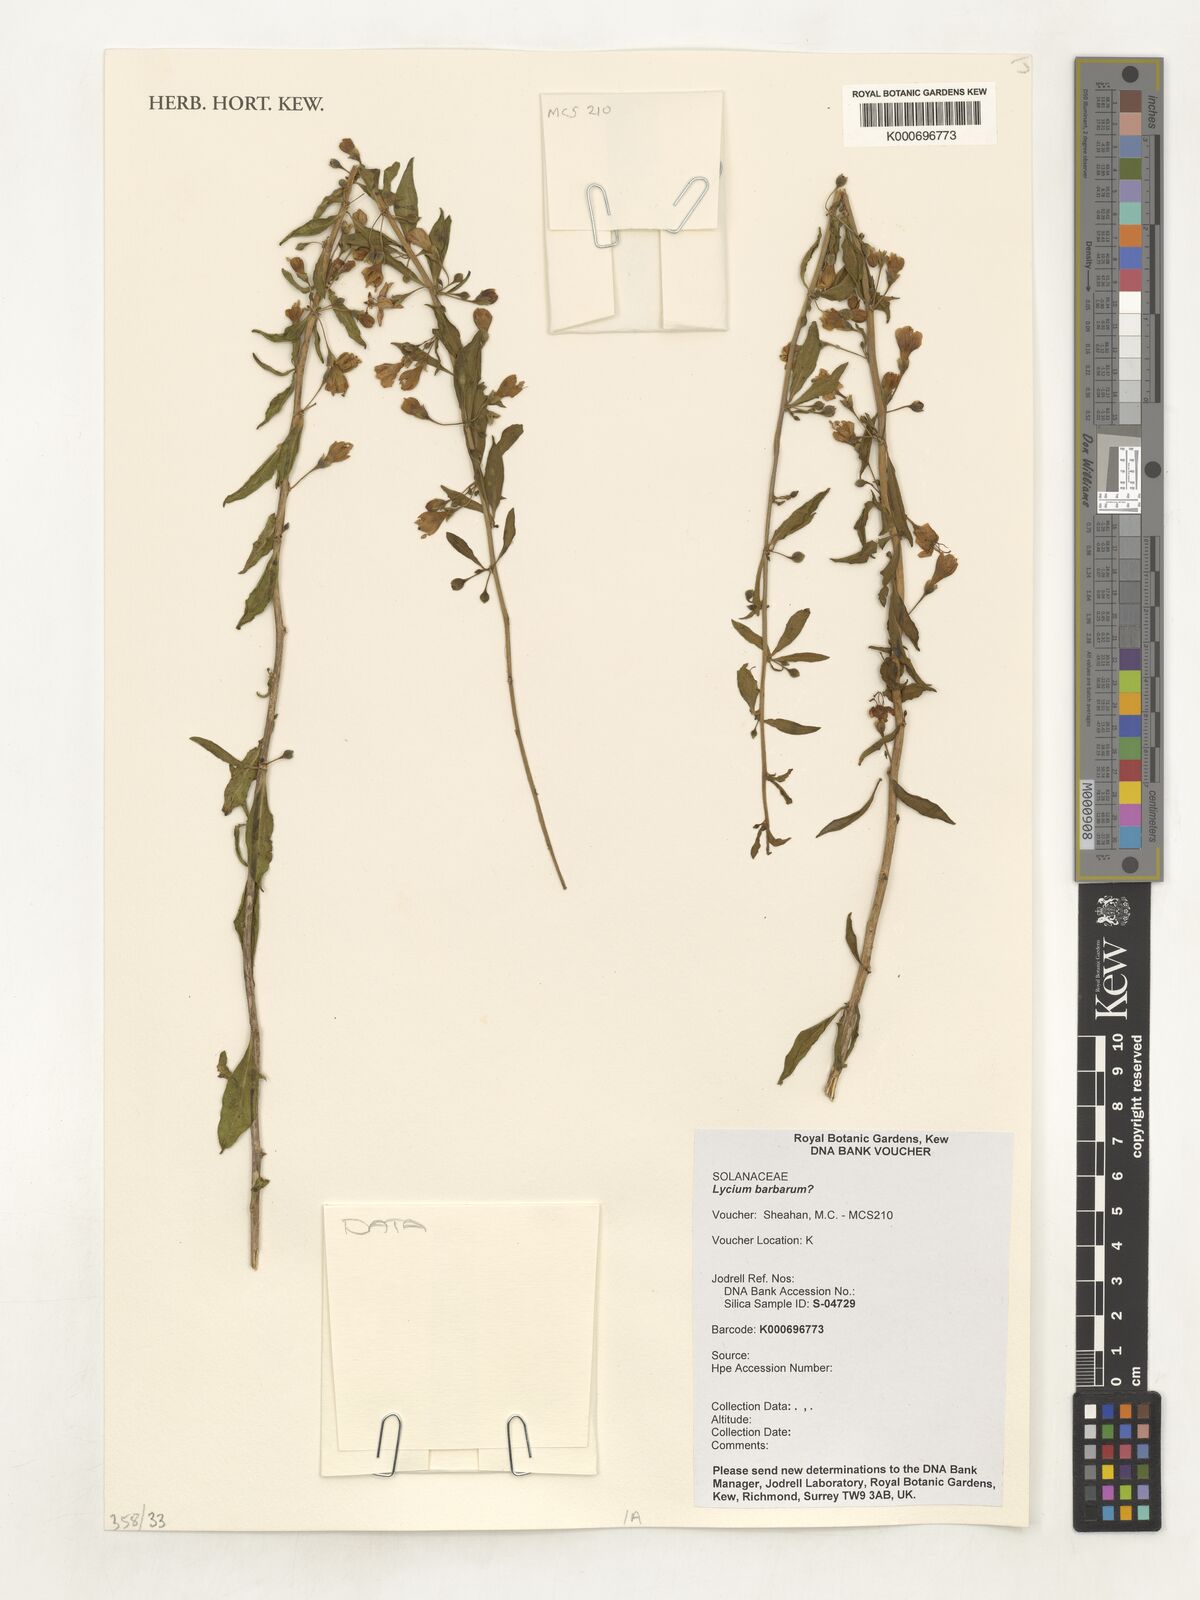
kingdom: Plantae
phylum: Tracheophyta
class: Magnoliopsida
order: Solanales
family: Solanaceae
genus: Lycium
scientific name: Lycium barbarum
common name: Duke of argyll's teaplant
